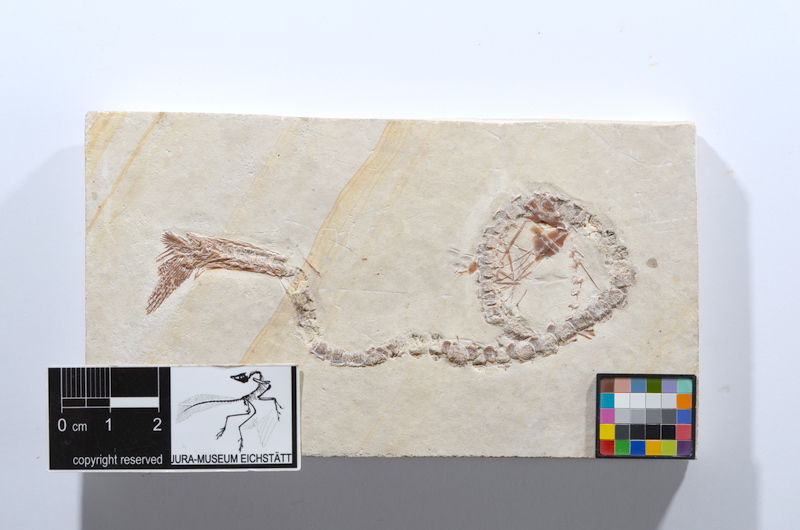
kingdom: Animalia
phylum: Chordata
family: Aspidorhynchidae
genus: Aspidorhynchus
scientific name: Aspidorhynchus
